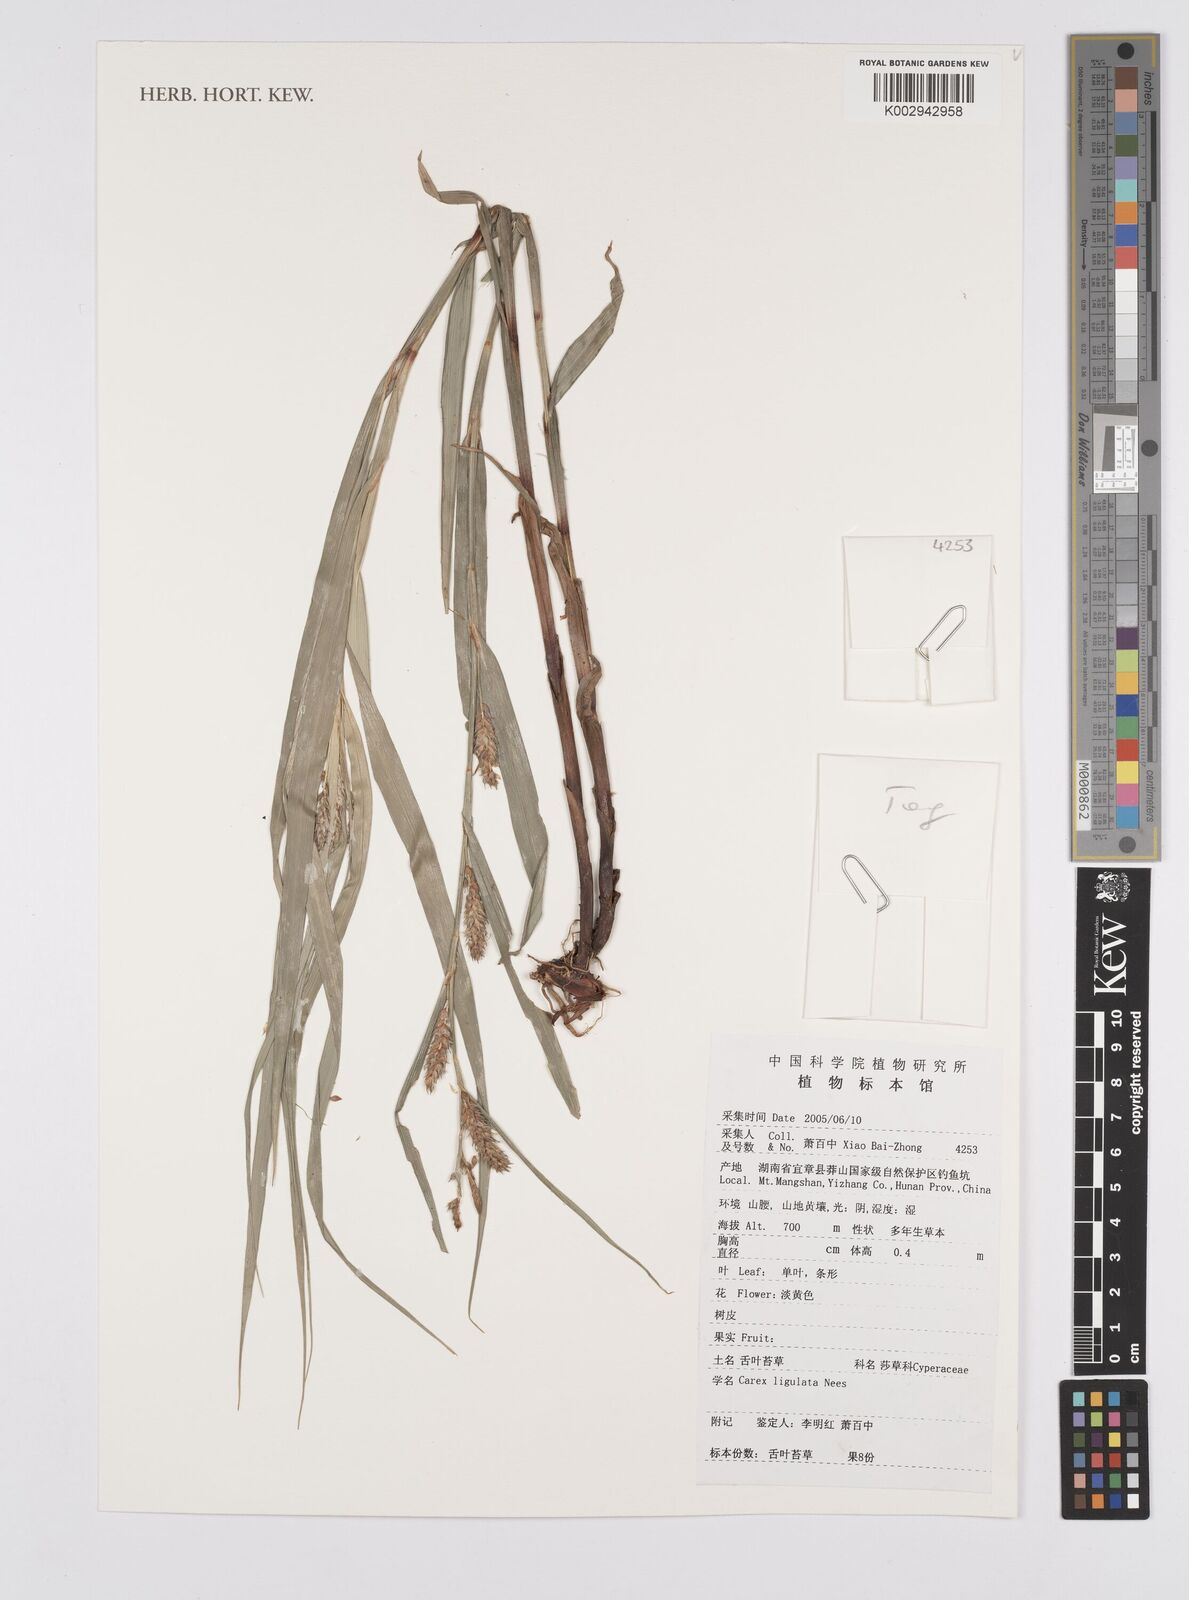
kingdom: Plantae
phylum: Tracheophyta
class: Liliopsida
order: Poales
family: Cyperaceae
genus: Carex
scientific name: Carex ligulata
